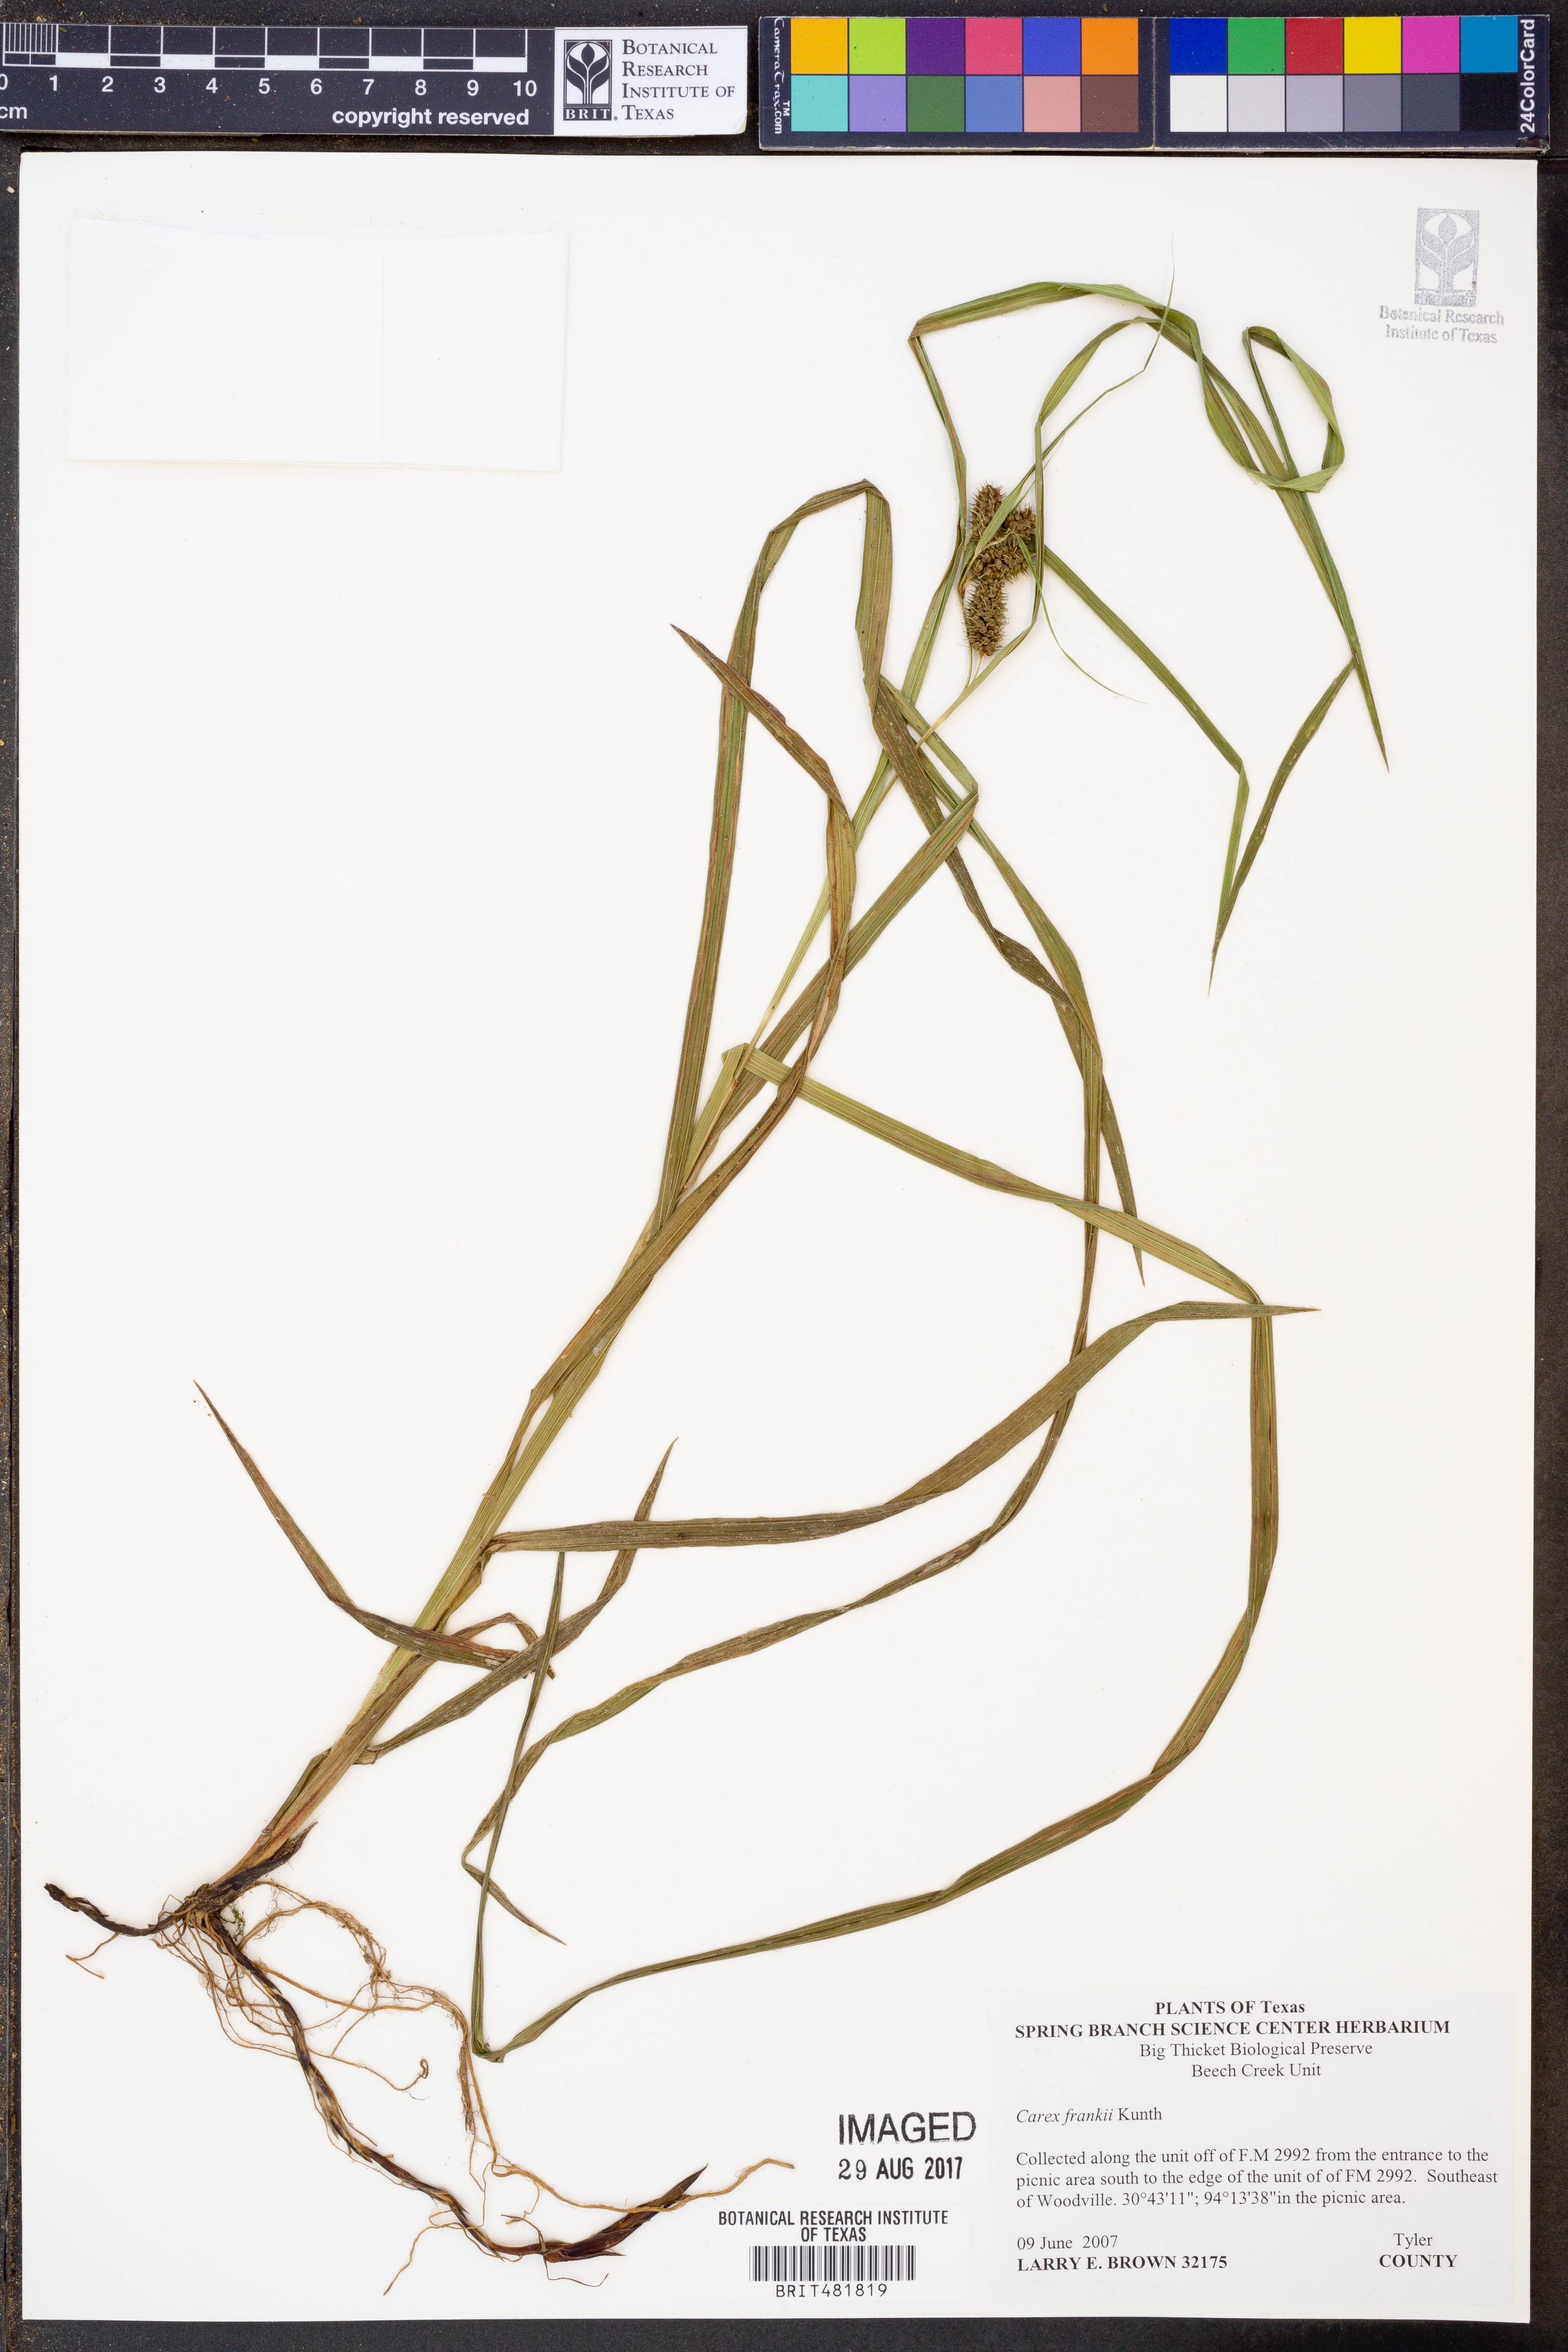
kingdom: Plantae
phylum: Tracheophyta
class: Liliopsida
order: Poales
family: Cyperaceae
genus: Carex
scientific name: Carex frankii
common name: Frank's sedge
